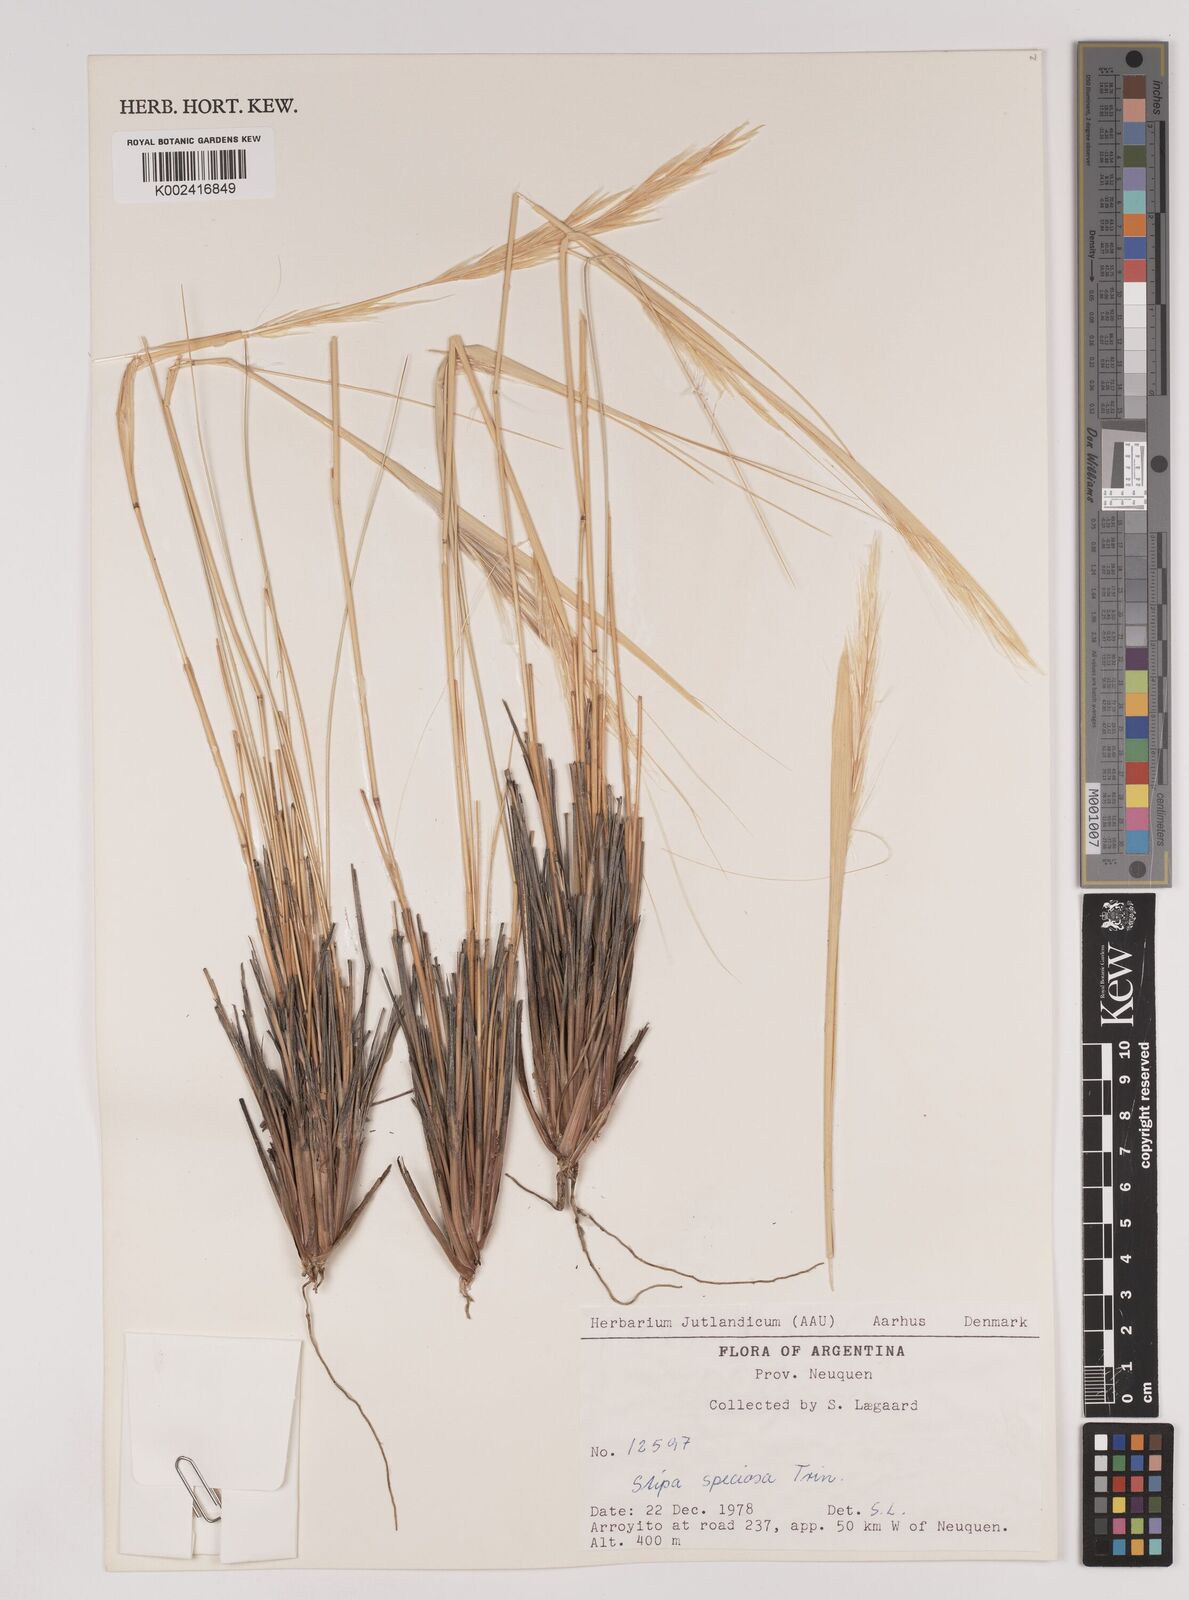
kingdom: Plantae
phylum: Tracheophyta
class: Liliopsida
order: Poales
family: Poaceae
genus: Pappostipa
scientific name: Pappostipa speciosa
